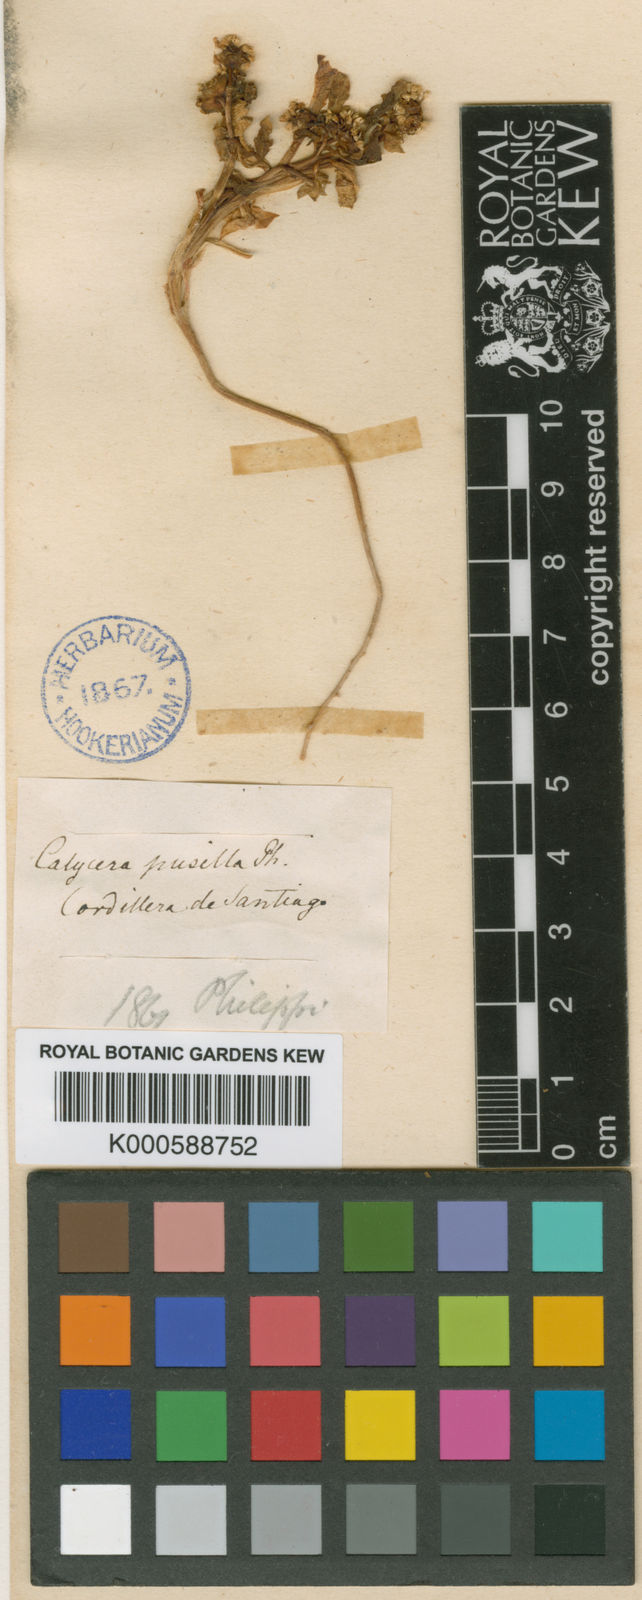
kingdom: Plantae
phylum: Tracheophyta
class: Magnoliopsida
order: Asterales
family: Calyceraceae
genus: Calycera
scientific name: Calycera
